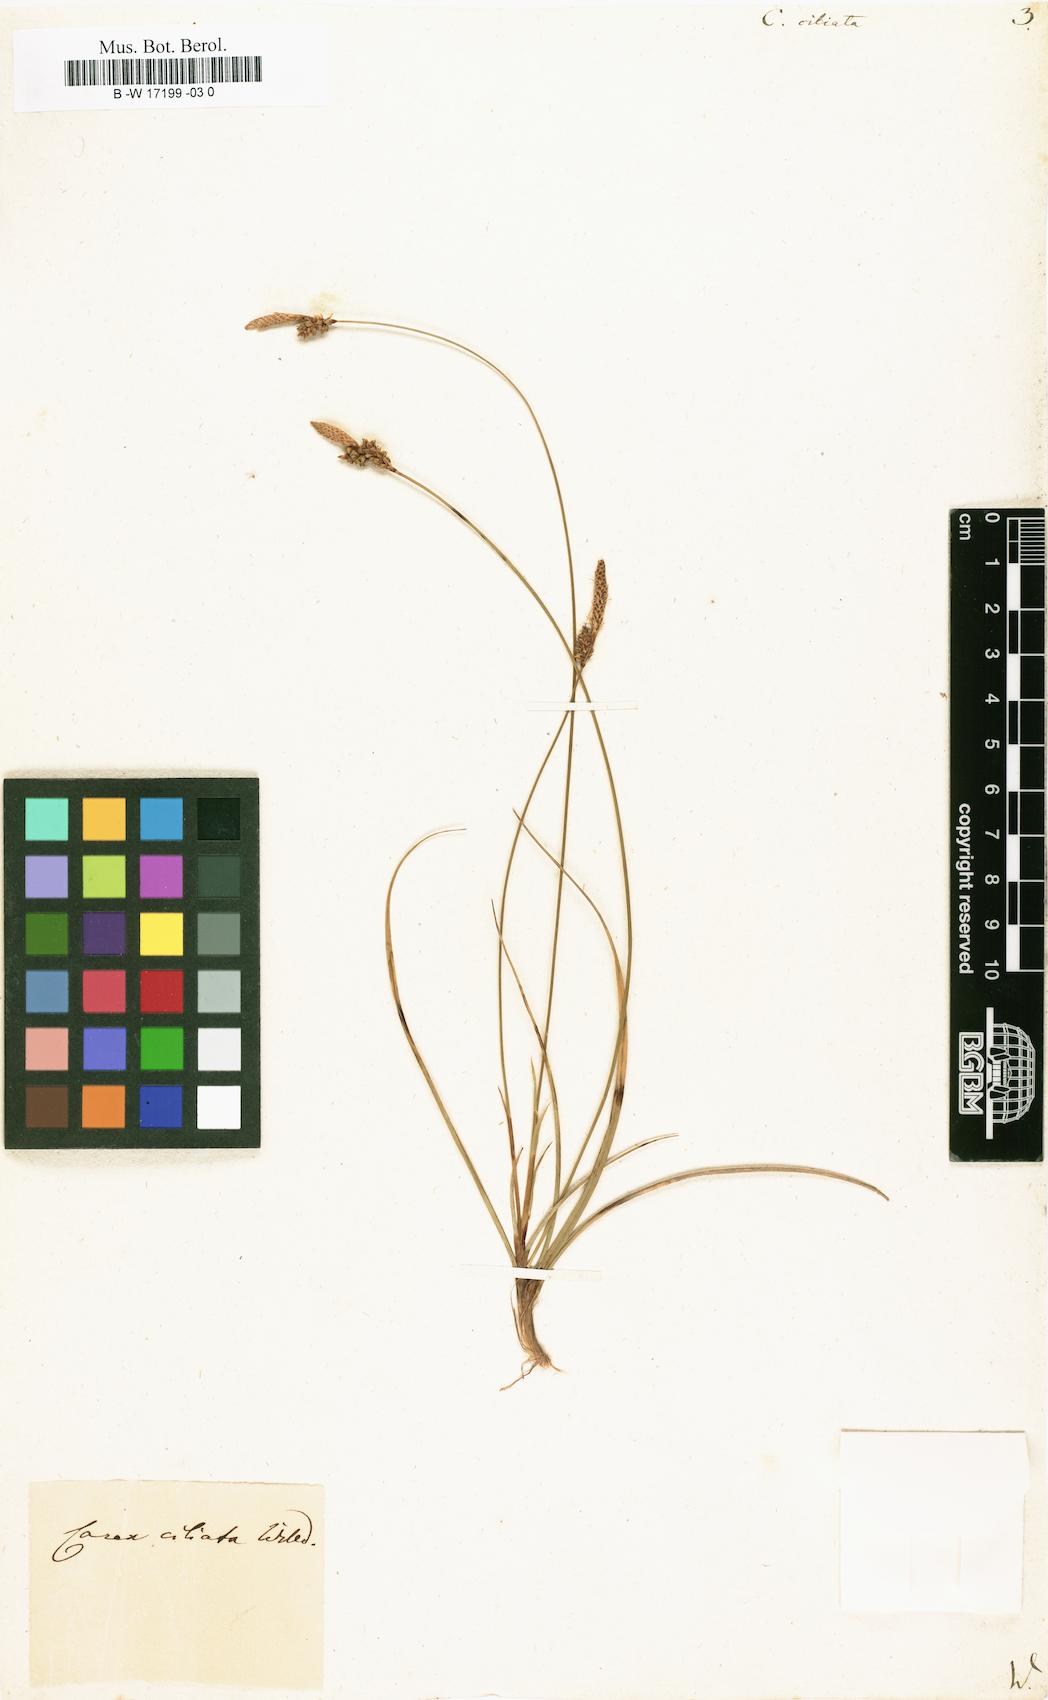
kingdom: Plantae
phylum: Tracheophyta
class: Liliopsida
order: Poales
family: Cyperaceae
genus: Carex
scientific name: Carex ericetorum
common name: Rare spring-sedge
